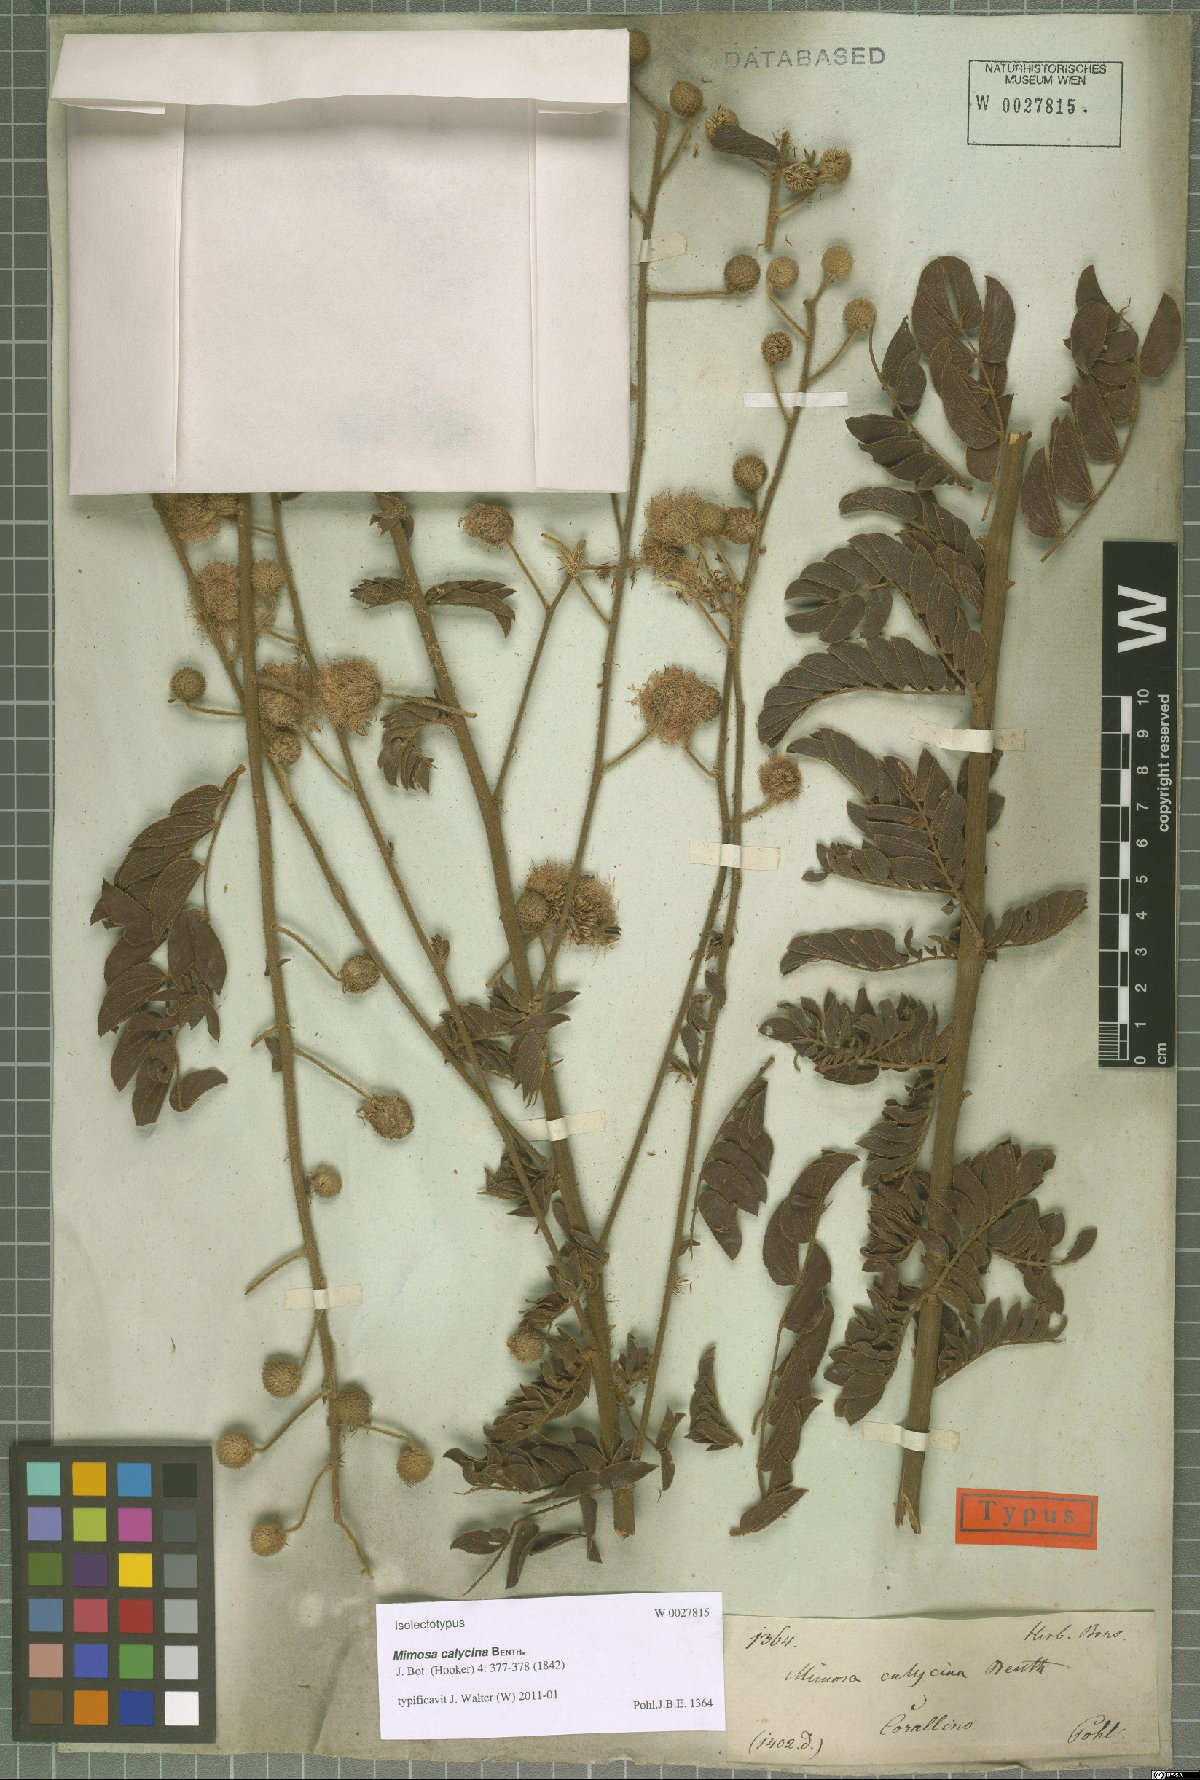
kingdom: Plantae
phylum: Tracheophyta
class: Magnoliopsida
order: Fabales
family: Fabaceae
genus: Mimosa
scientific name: Mimosa radula
